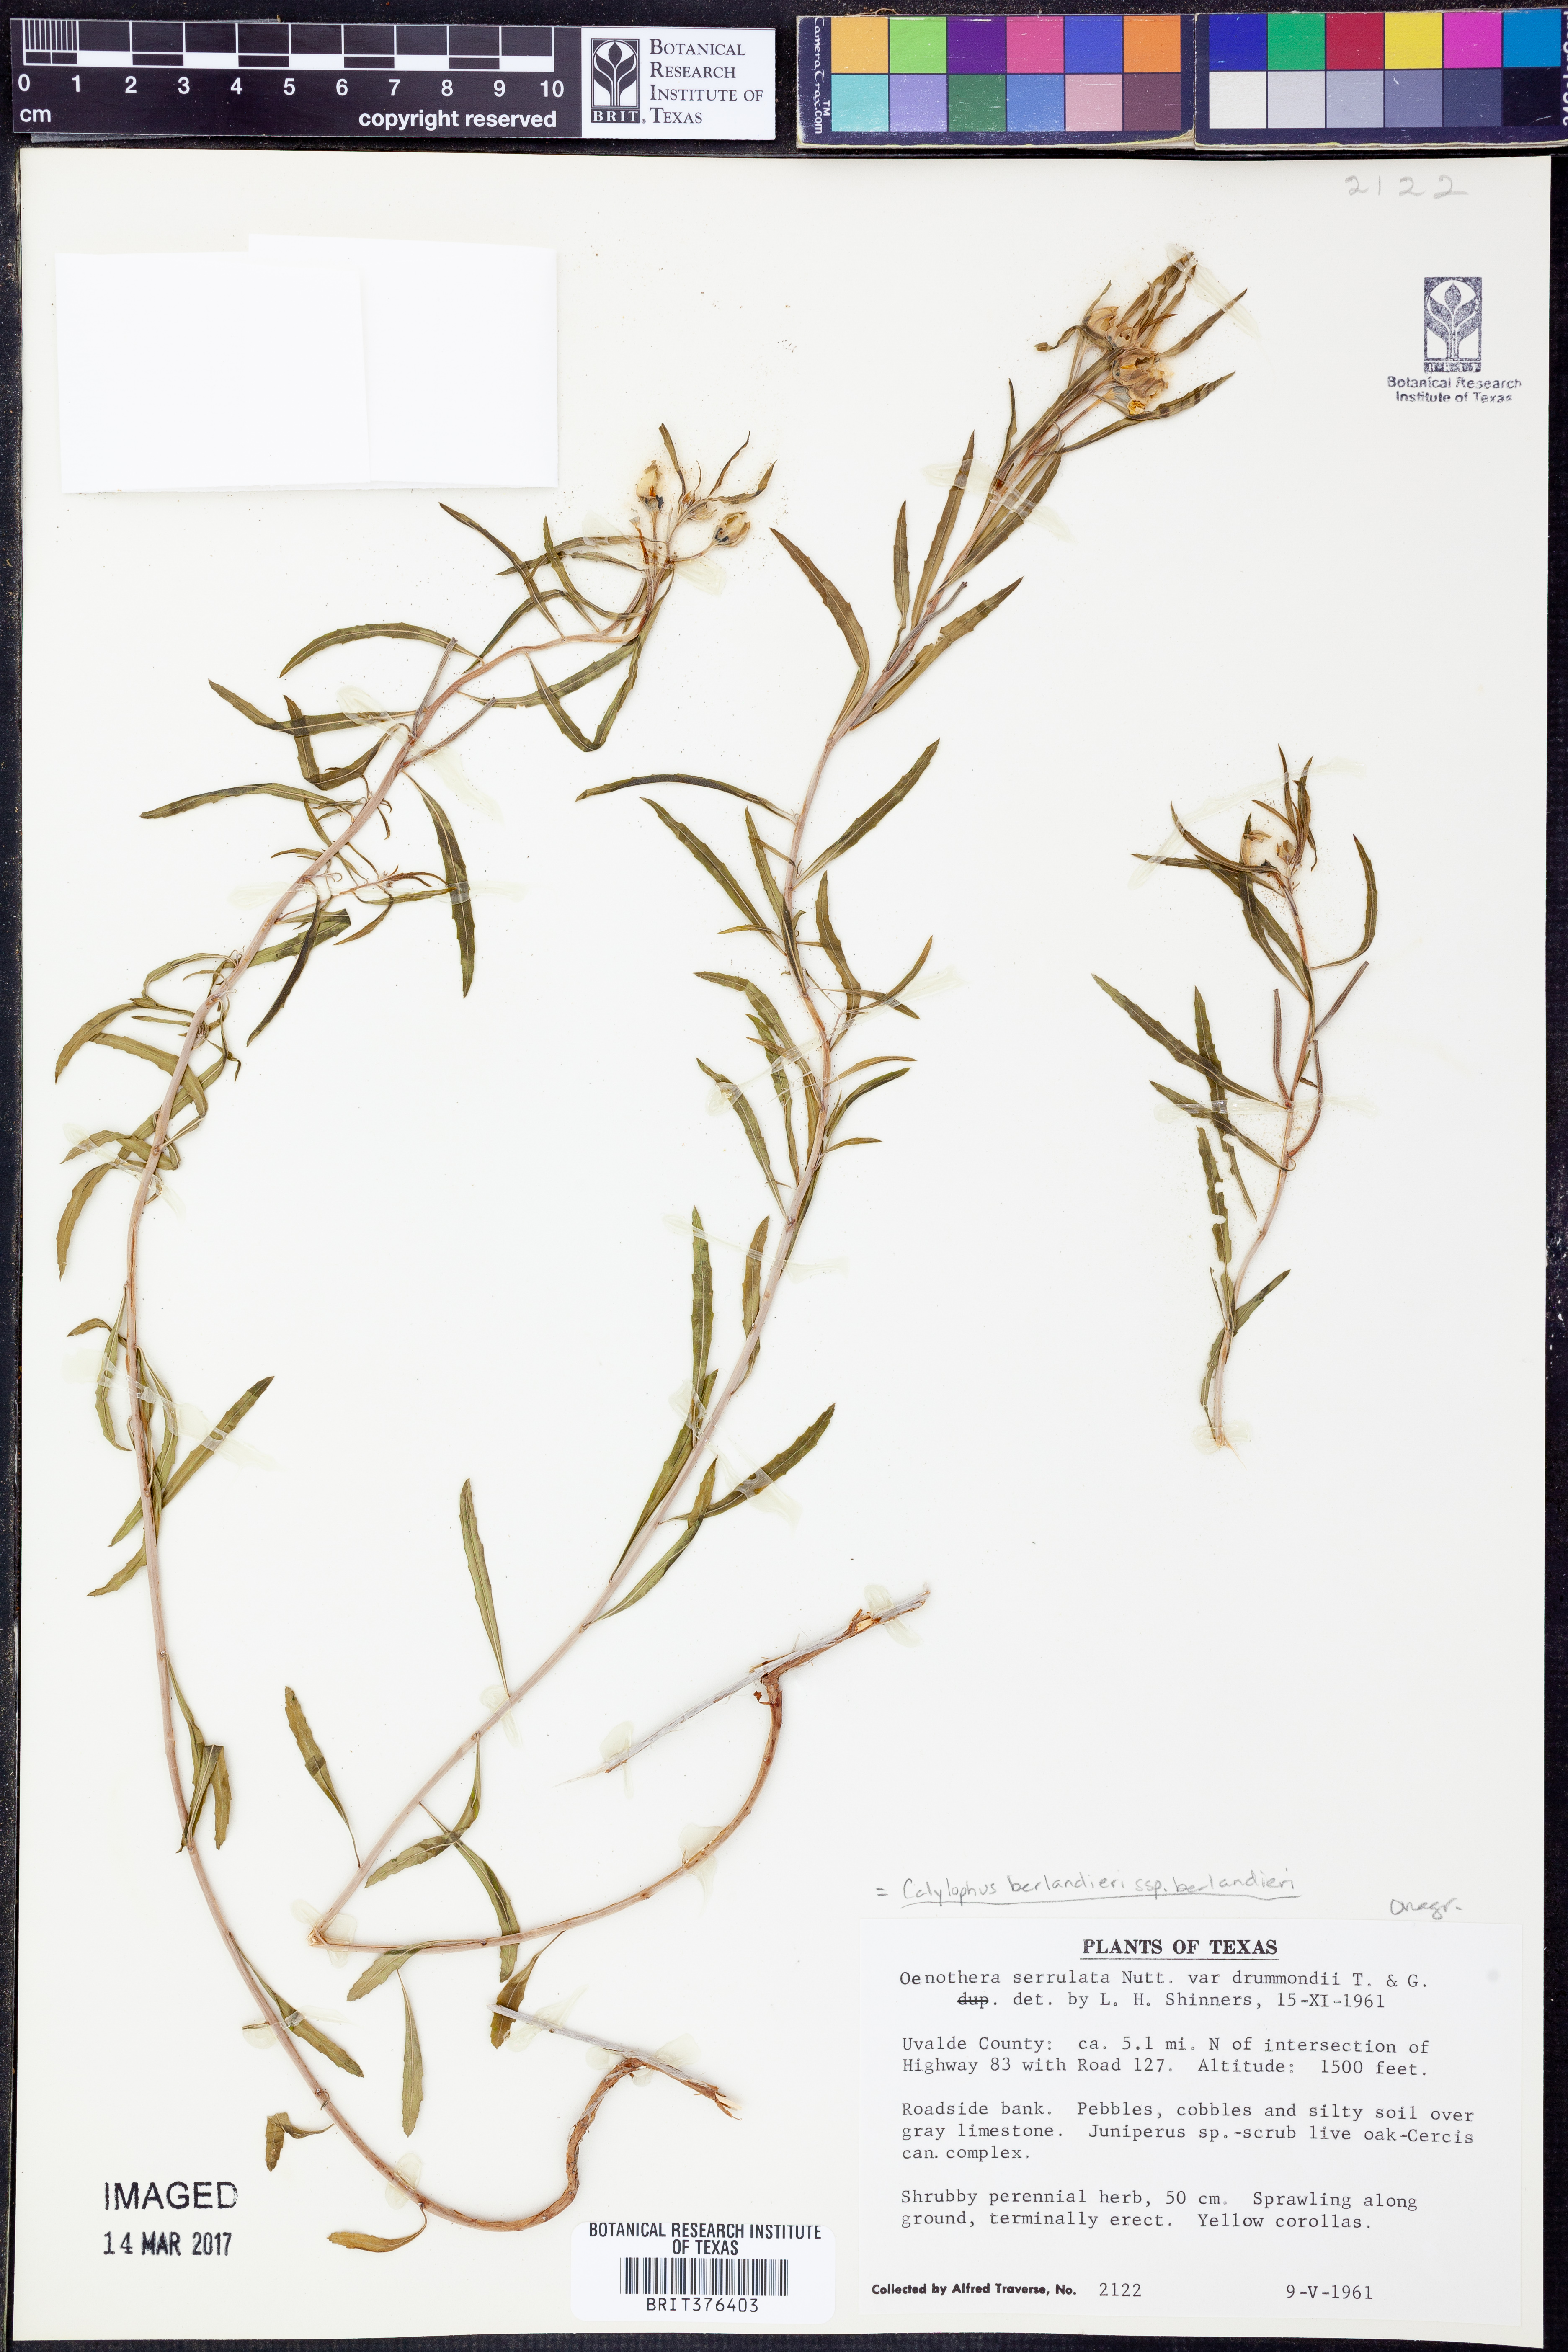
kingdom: Plantae
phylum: Tracheophyta
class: Magnoliopsida
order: Myrtales
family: Onagraceae
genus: Oenothera
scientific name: Oenothera capillifolia
